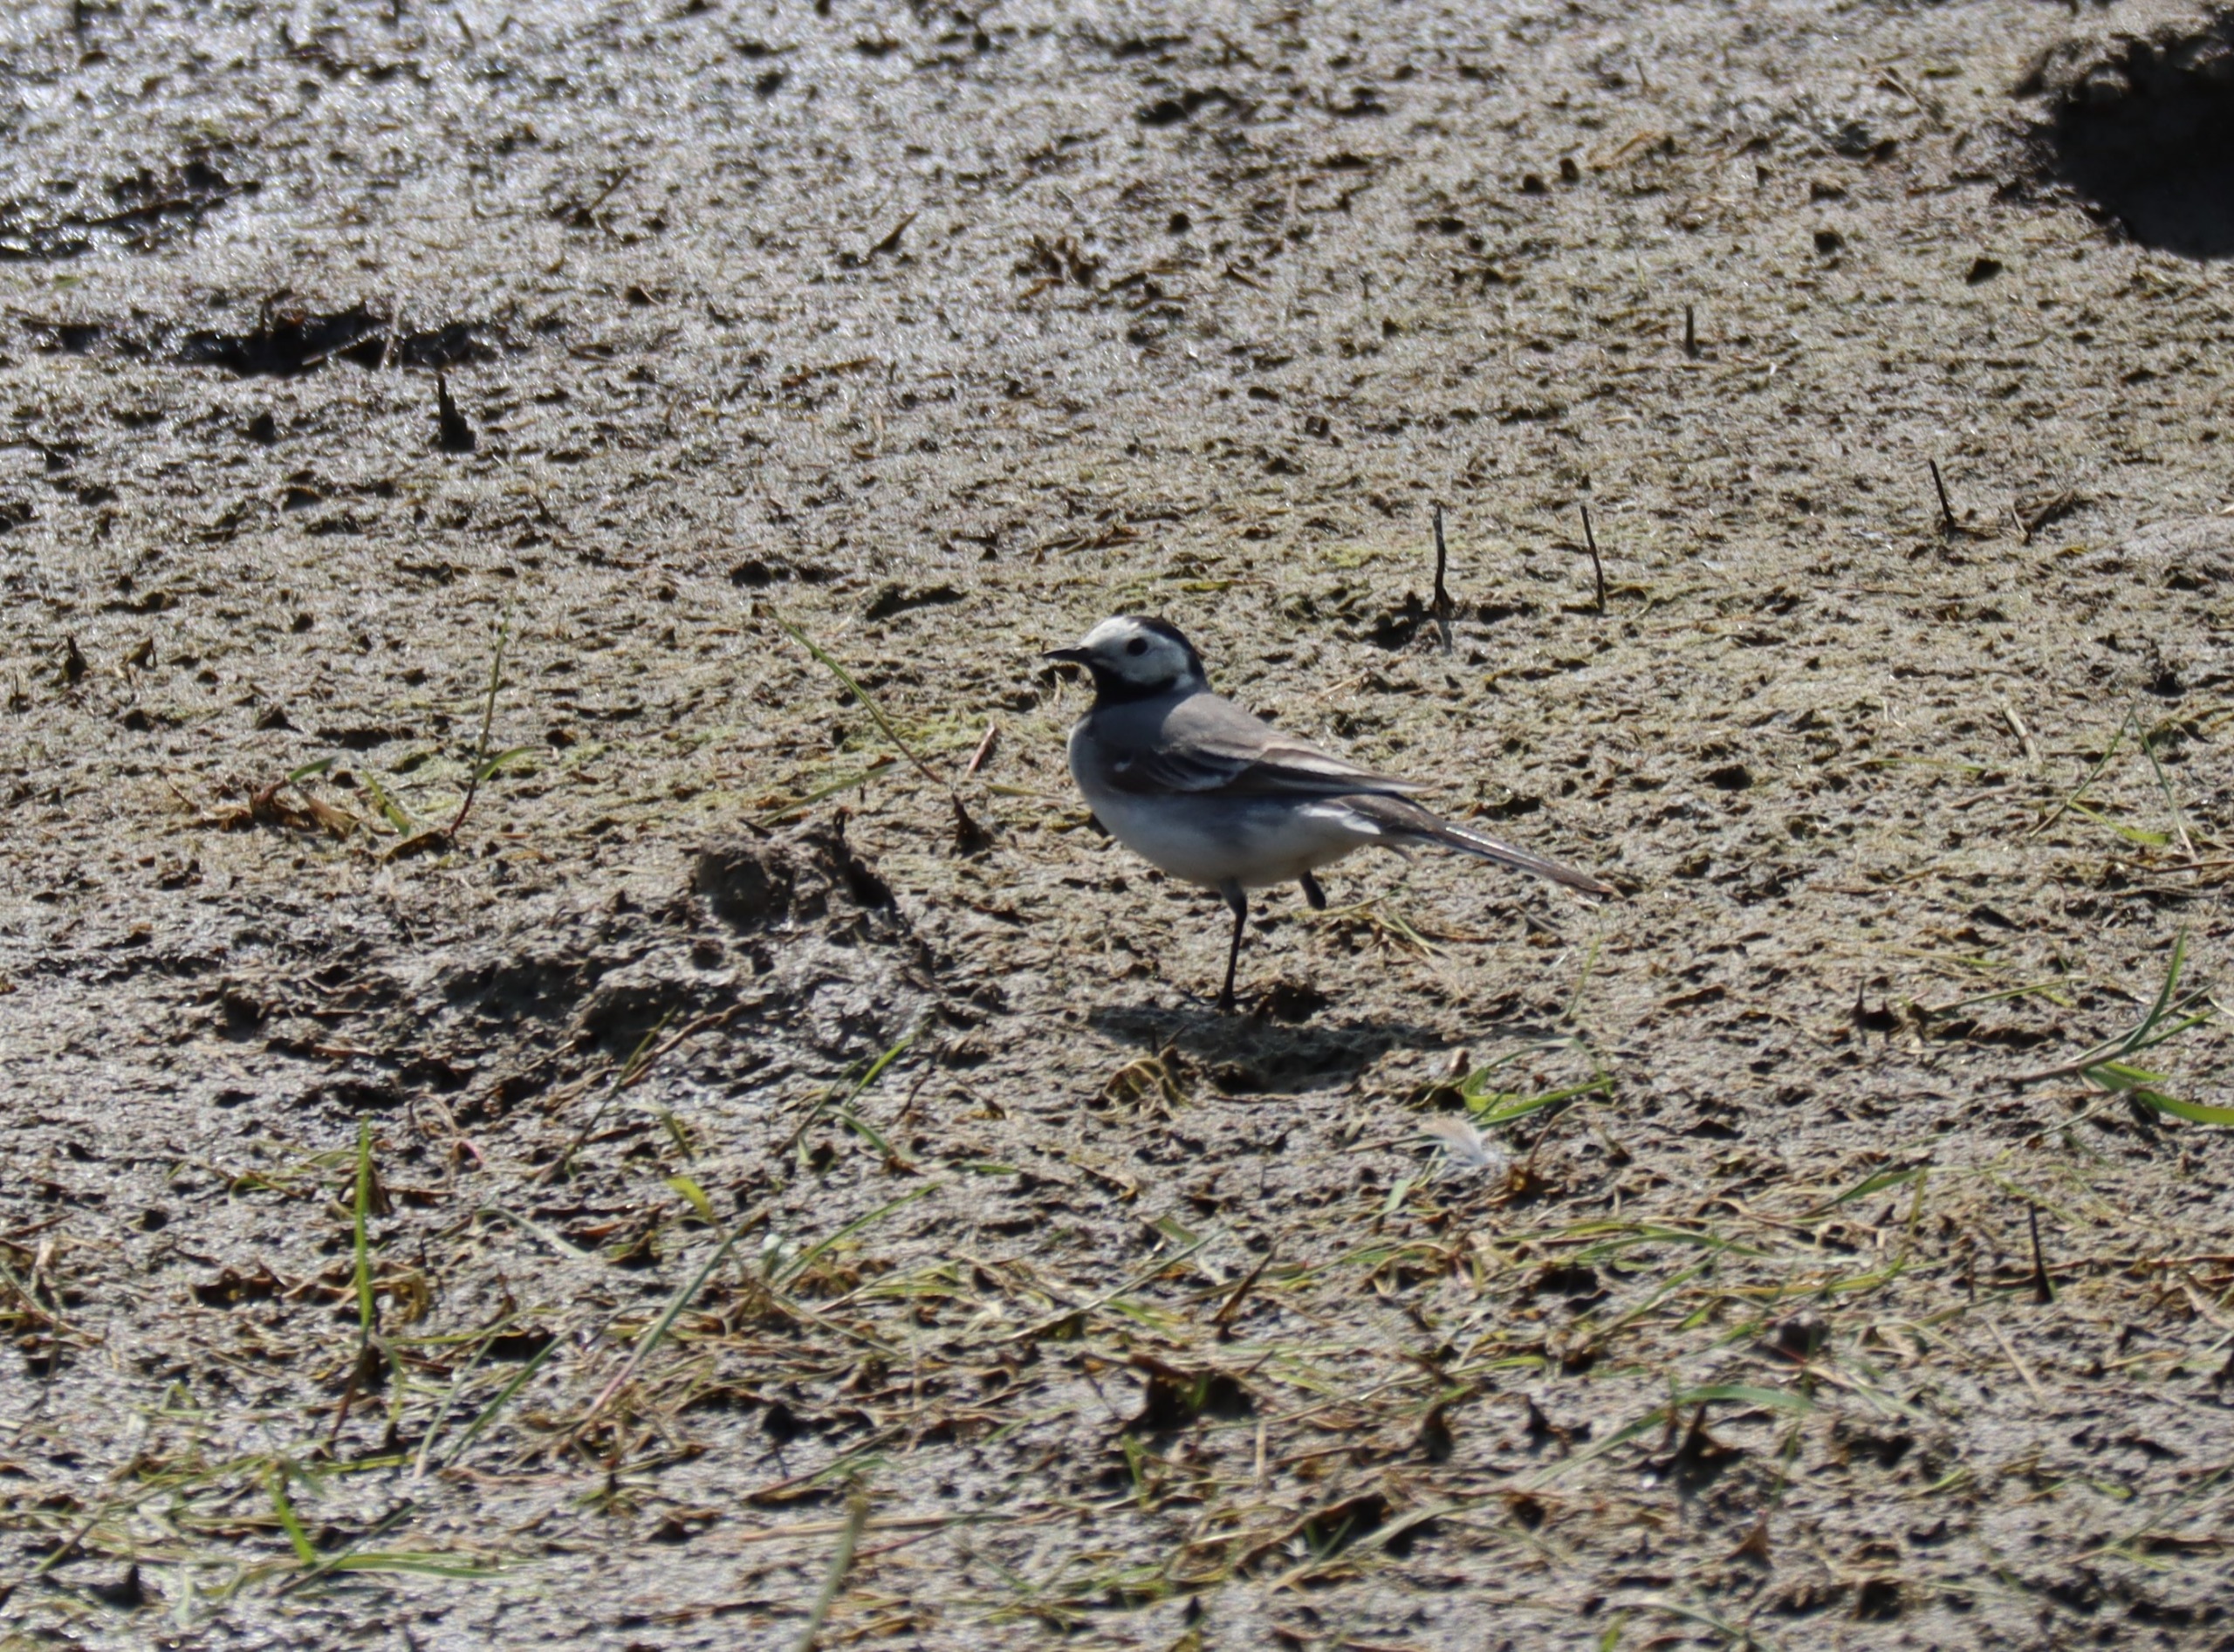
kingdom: Animalia
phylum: Chordata
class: Aves
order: Passeriformes
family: Motacillidae
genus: Motacilla
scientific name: Motacilla alba
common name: Hvid vipstjert
